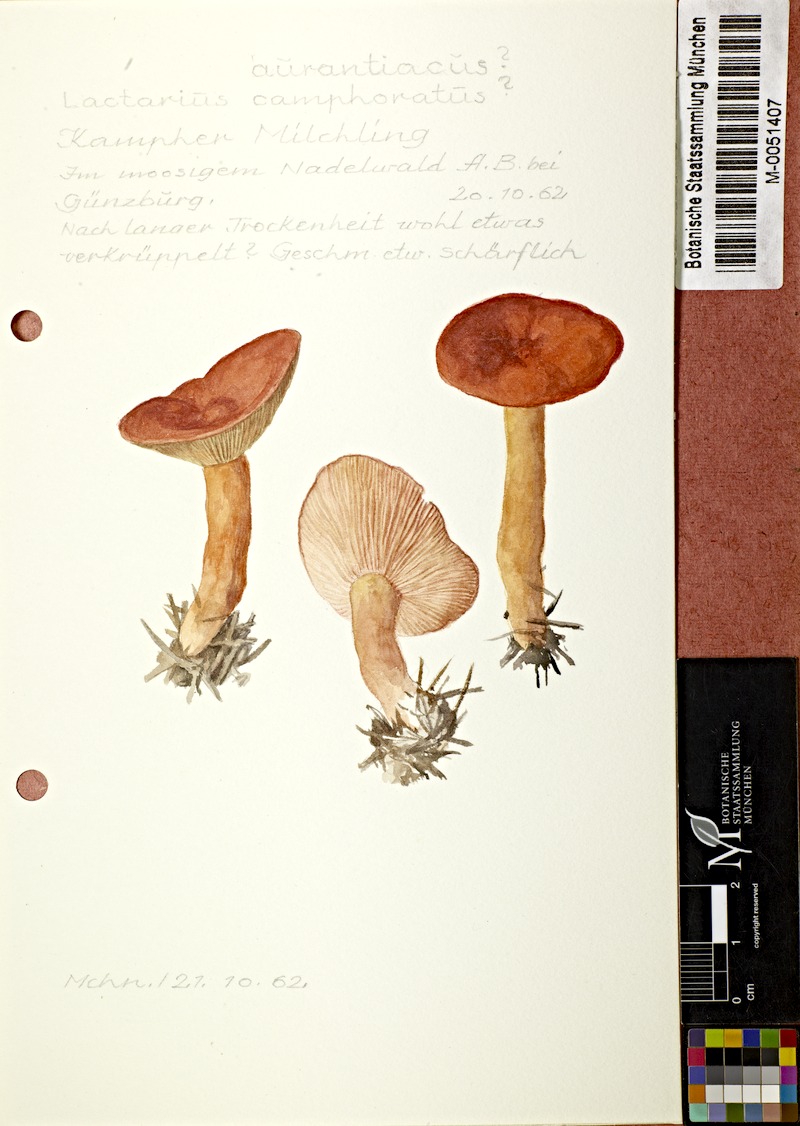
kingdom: Fungi
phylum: Basidiomycota
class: Agaricomycetes
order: Russulales
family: Russulaceae
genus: Lactarius
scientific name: Lactarius aurantiacus
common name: Orange milkcap
